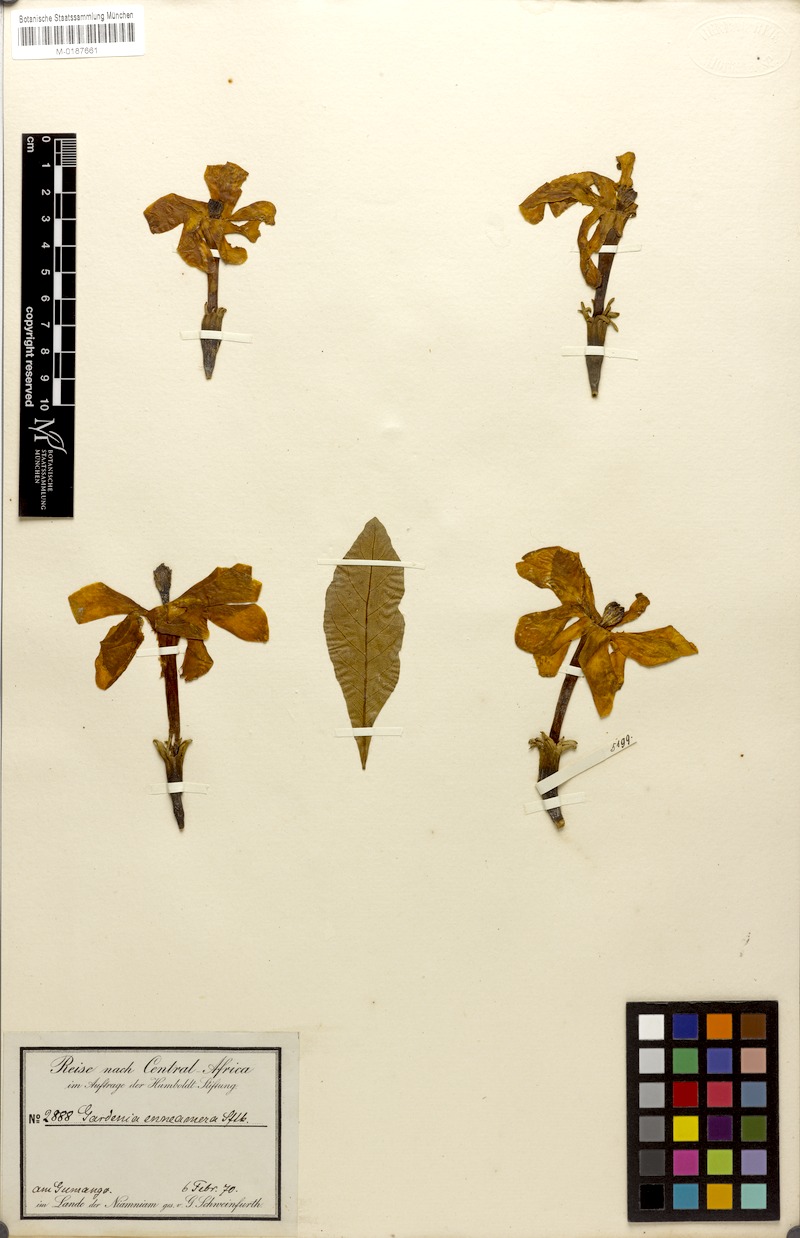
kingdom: Plantae
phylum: Tracheophyta
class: Magnoliopsida
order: Gentianales
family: Rubiaceae
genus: Gardenia
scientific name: Gardenia ternifolia
